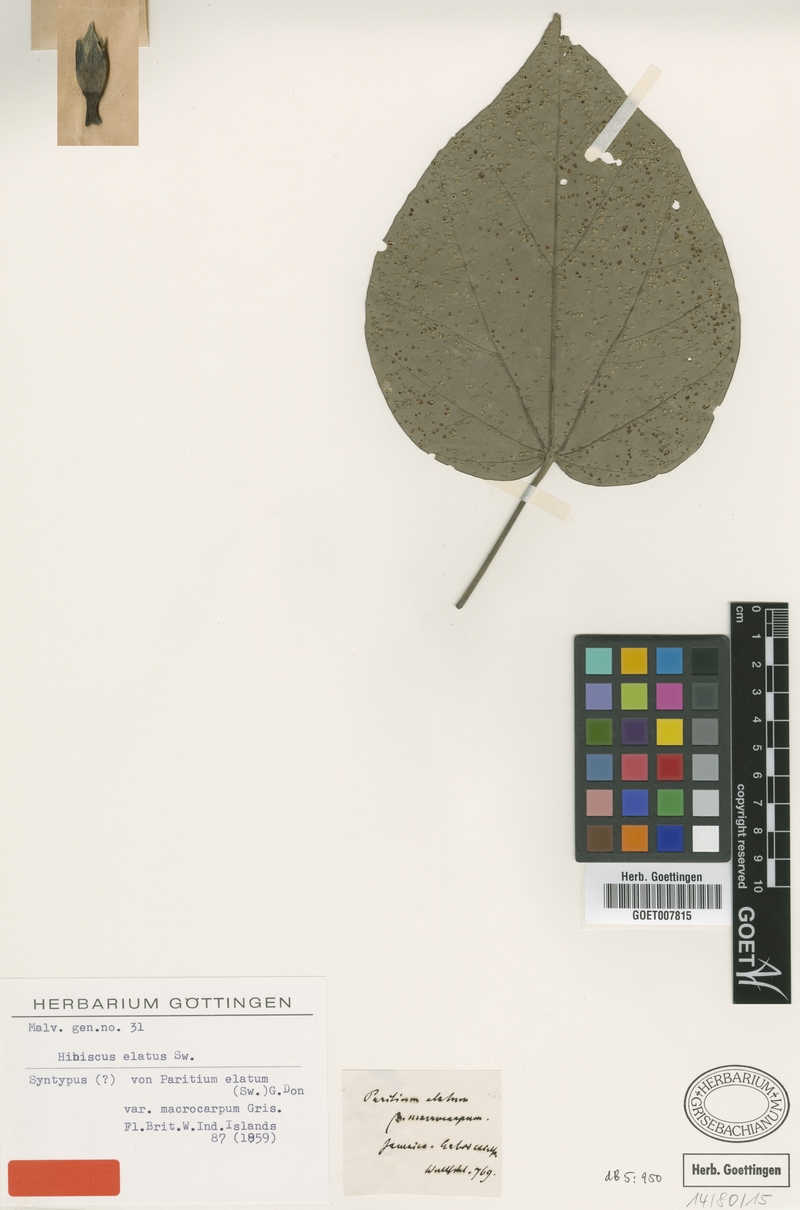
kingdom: Plantae
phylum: Tracheophyta
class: Magnoliopsida
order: Malvales
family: Malvaceae
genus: Talipariti
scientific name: Talipariti elatum
